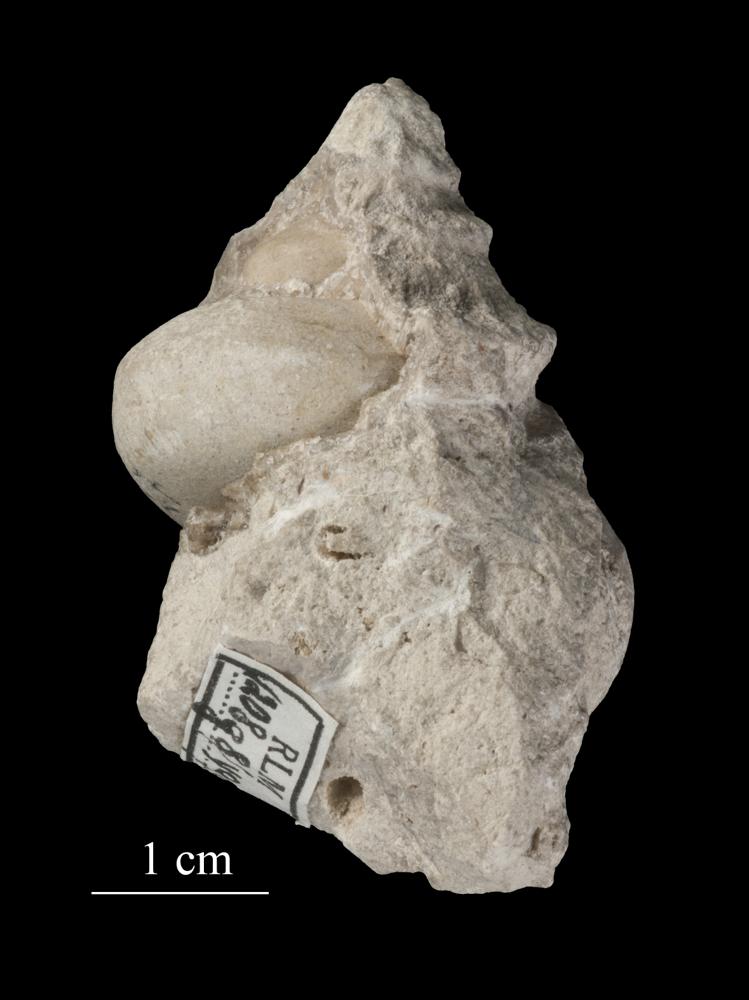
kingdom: Animalia
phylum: Mollusca
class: Gastropoda
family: Lophospiridae
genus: Ruedemannia
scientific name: Ruedemannia Worthenia borkholmiensis
